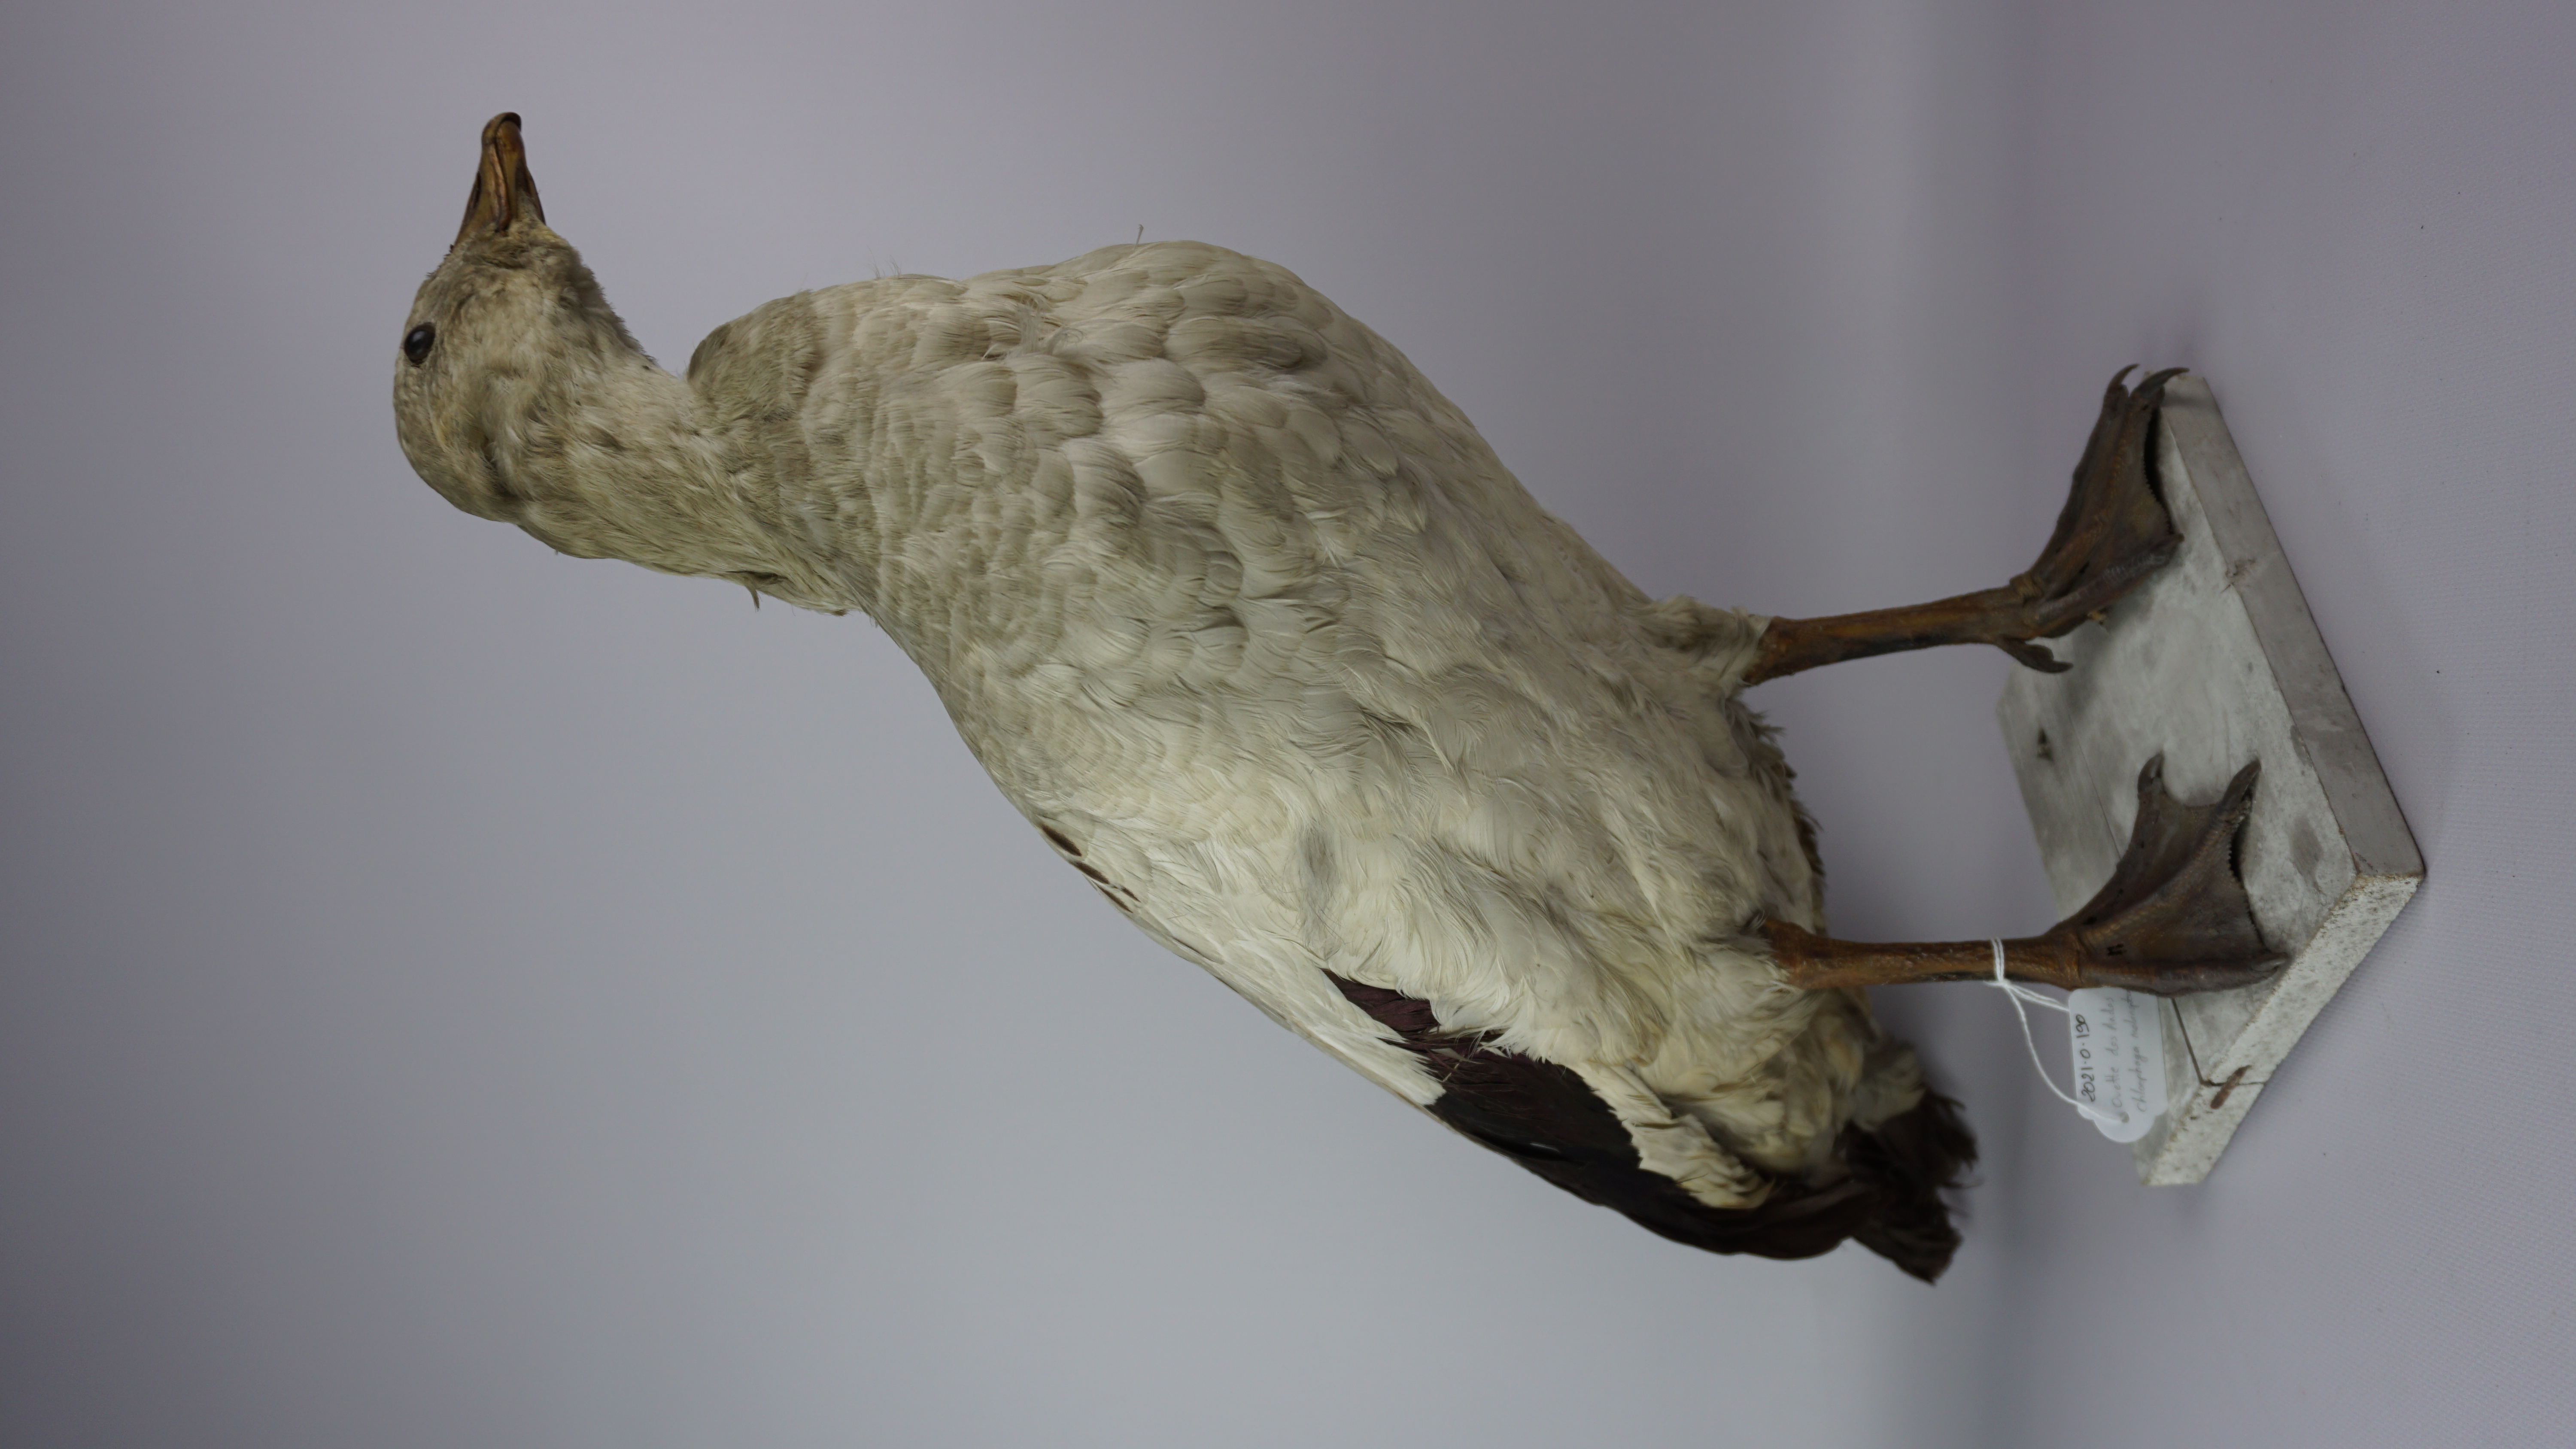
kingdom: Animalia
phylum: Chordata
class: Aves
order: Anseriformes
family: Anatidae
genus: Chloephaga
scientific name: Chloephaga melanoptera
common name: Andean goose
